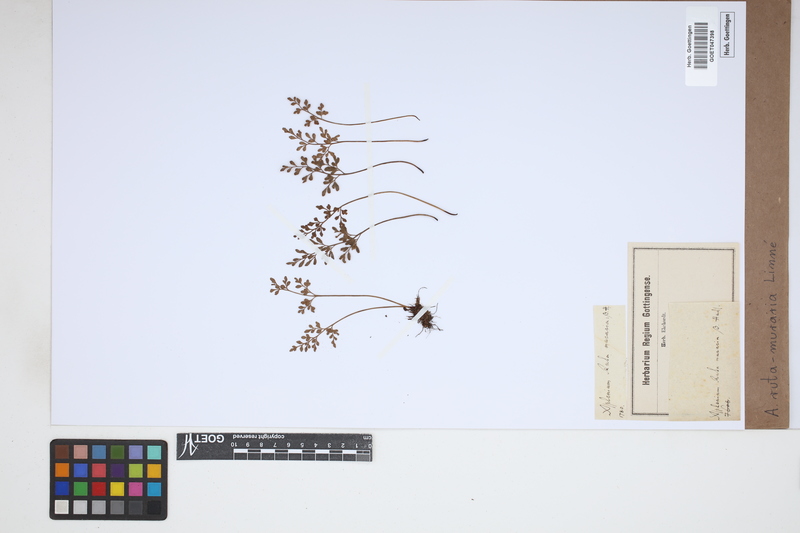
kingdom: Plantae
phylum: Tracheophyta
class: Polypodiopsida
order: Polypodiales
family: Aspleniaceae
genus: Asplenium
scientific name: Asplenium ruta-muraria
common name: Wall-rue
